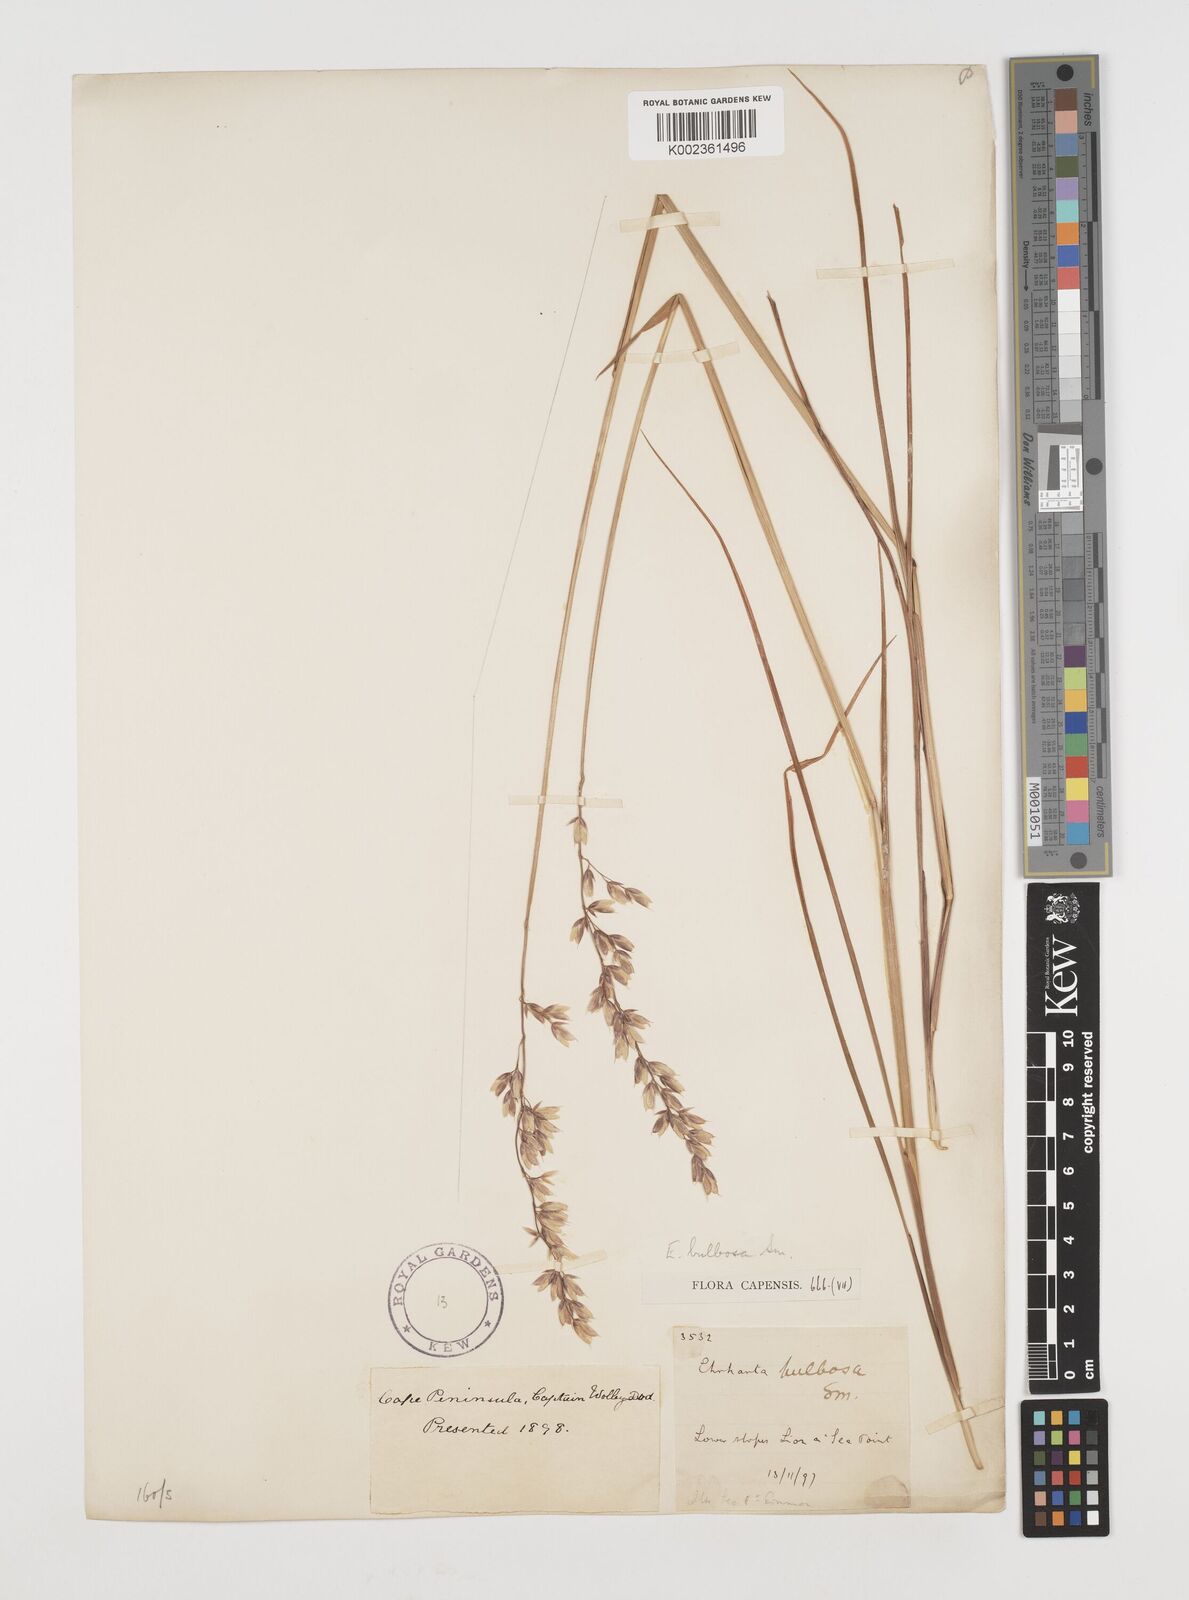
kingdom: Plantae
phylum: Tracheophyta
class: Liliopsida
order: Poales
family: Poaceae
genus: Ehrharta
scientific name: Ehrharta bulbosa
